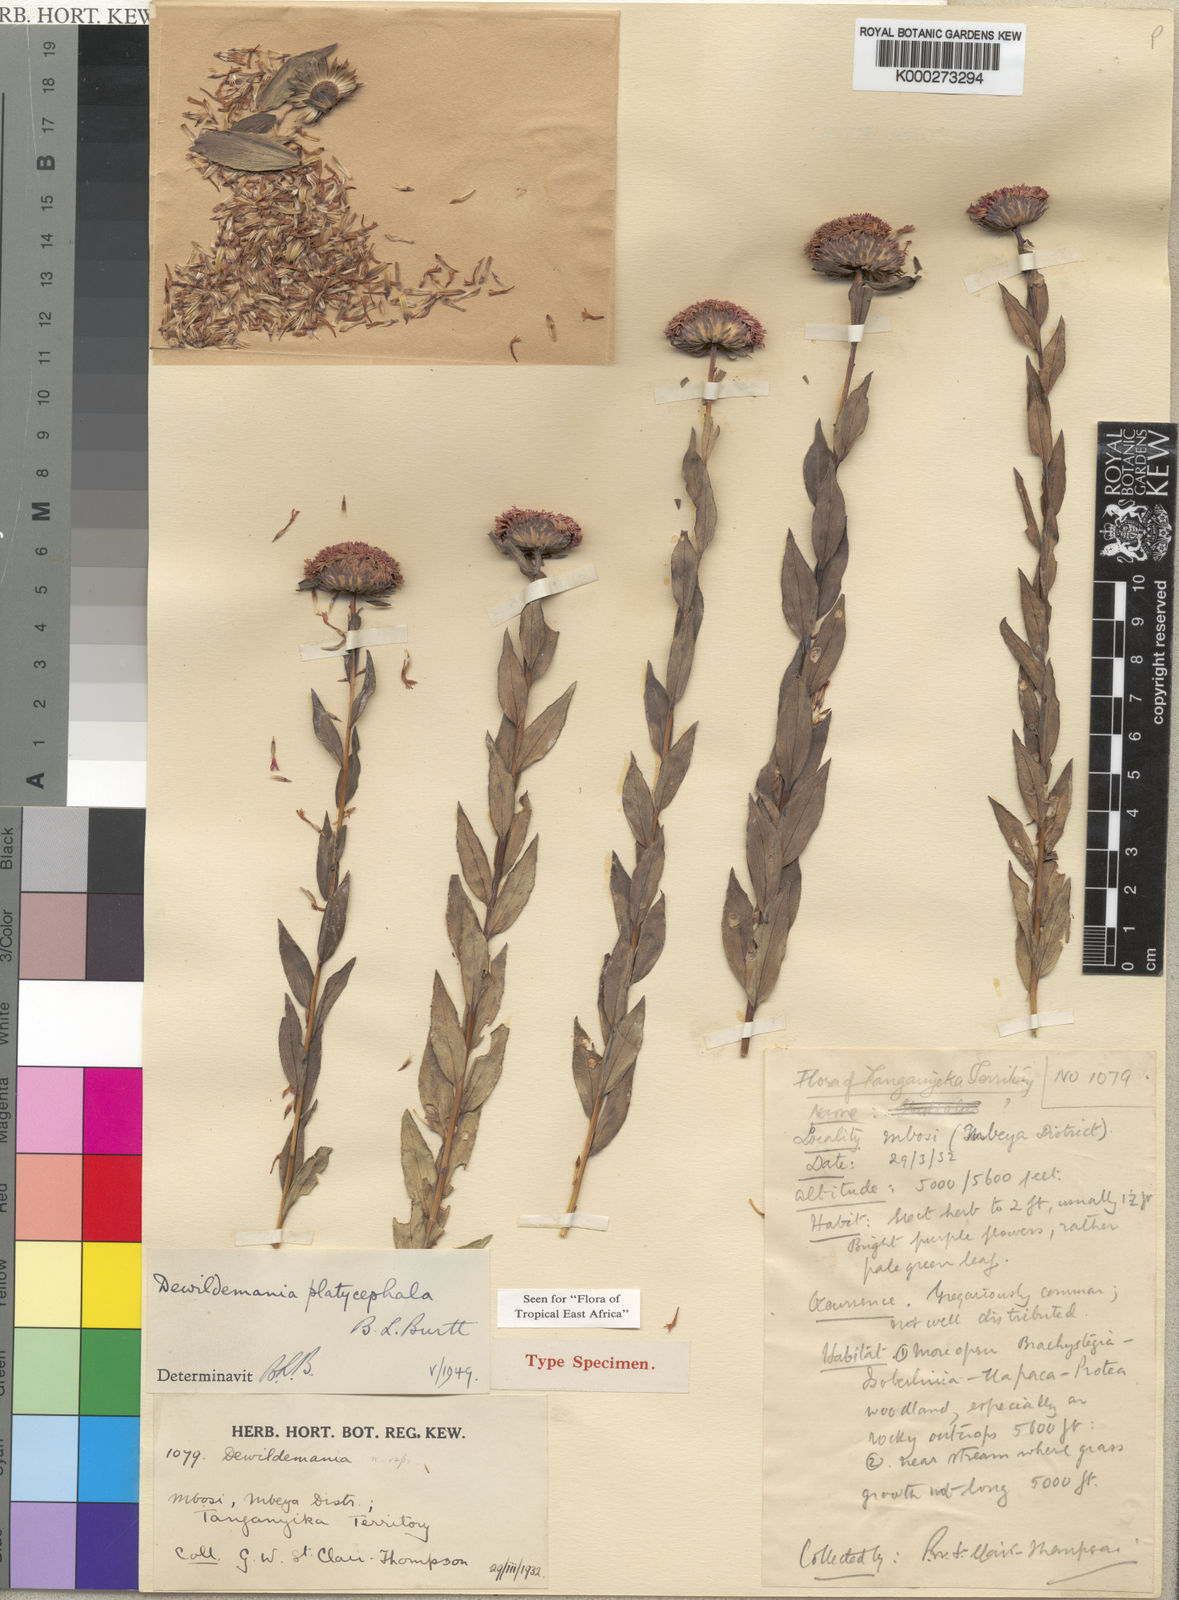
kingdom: Plantae
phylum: Tracheophyta
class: Magnoliopsida
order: Asterales
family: Asteraceae
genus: Dewildemania
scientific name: Dewildemania platycephala
